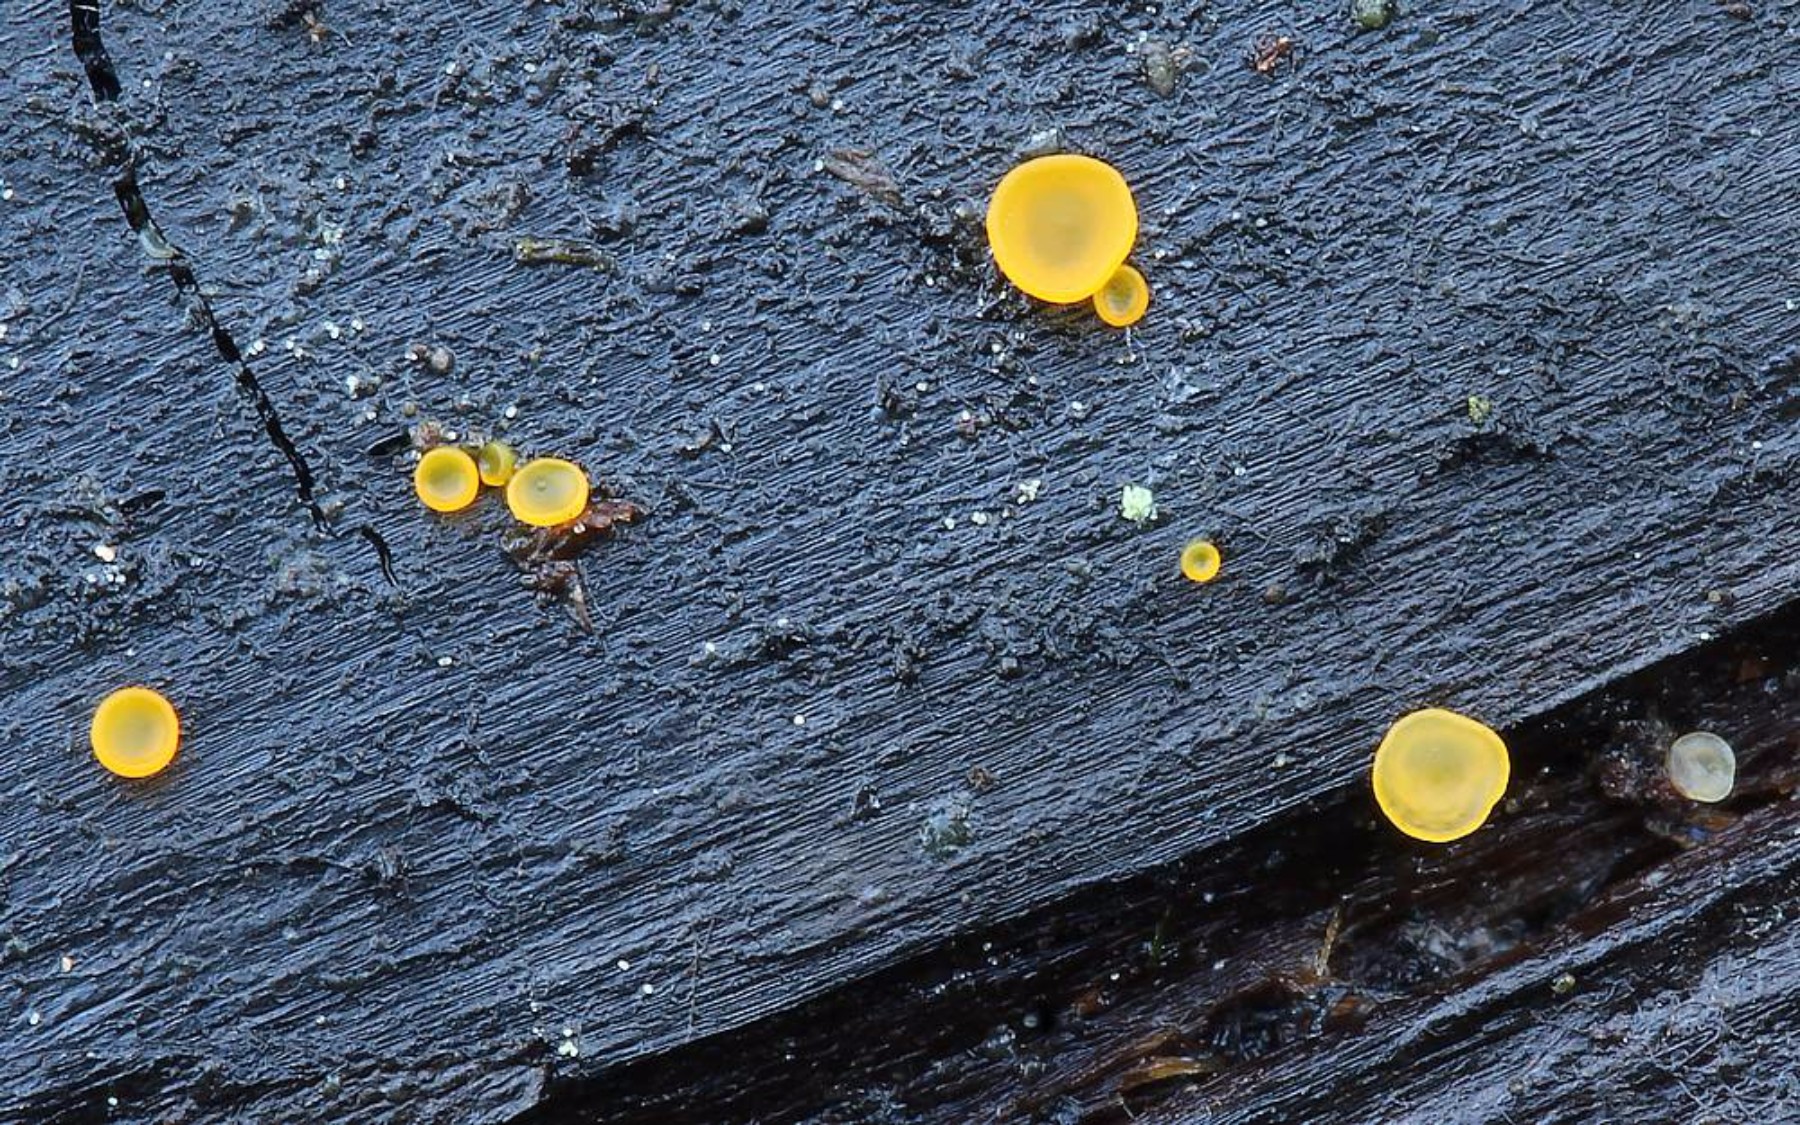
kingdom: Fungi
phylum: Ascomycota
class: Orbiliomycetes
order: Orbiliales
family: Orbiliaceae
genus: Orbilia
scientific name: Orbilia xanthostigma
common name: krumsporet voksskive
